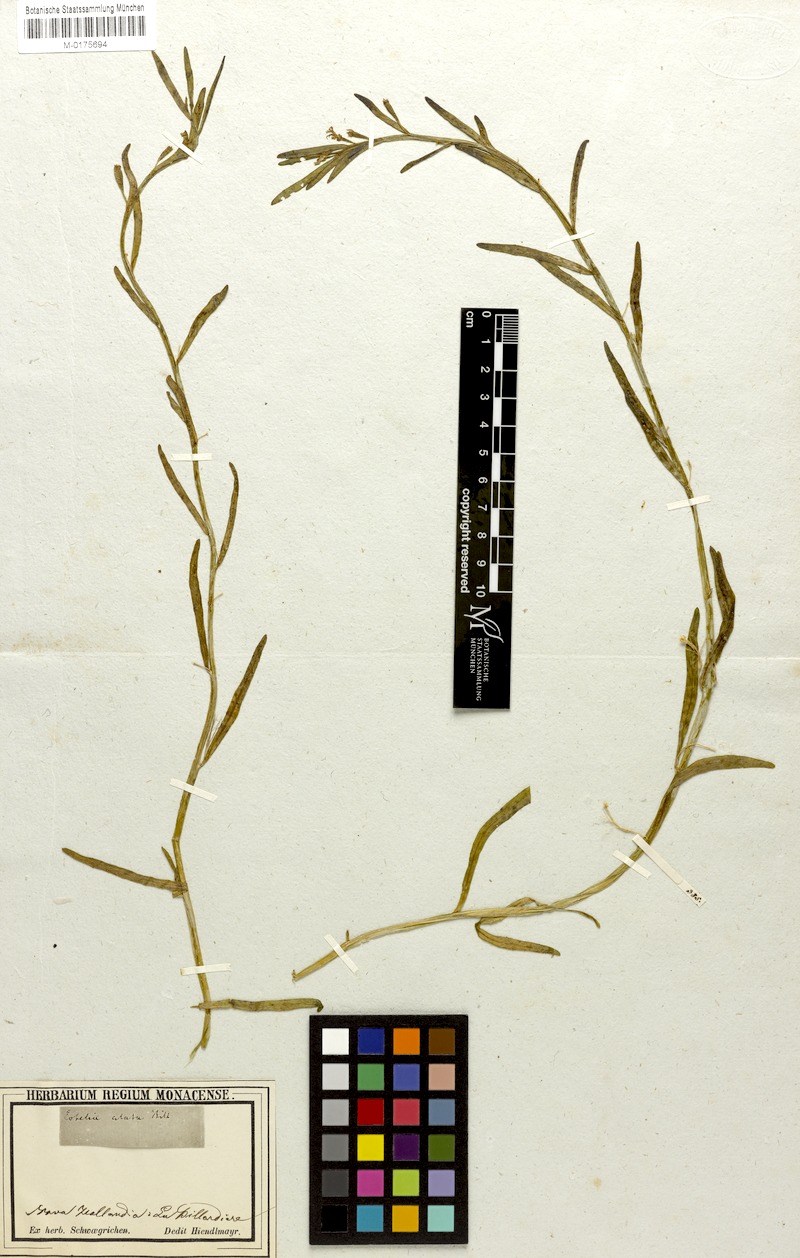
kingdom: Plantae
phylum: Tracheophyta
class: Magnoliopsida
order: Asterales
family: Campanulaceae
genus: Lobelia
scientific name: Lobelia anceps
